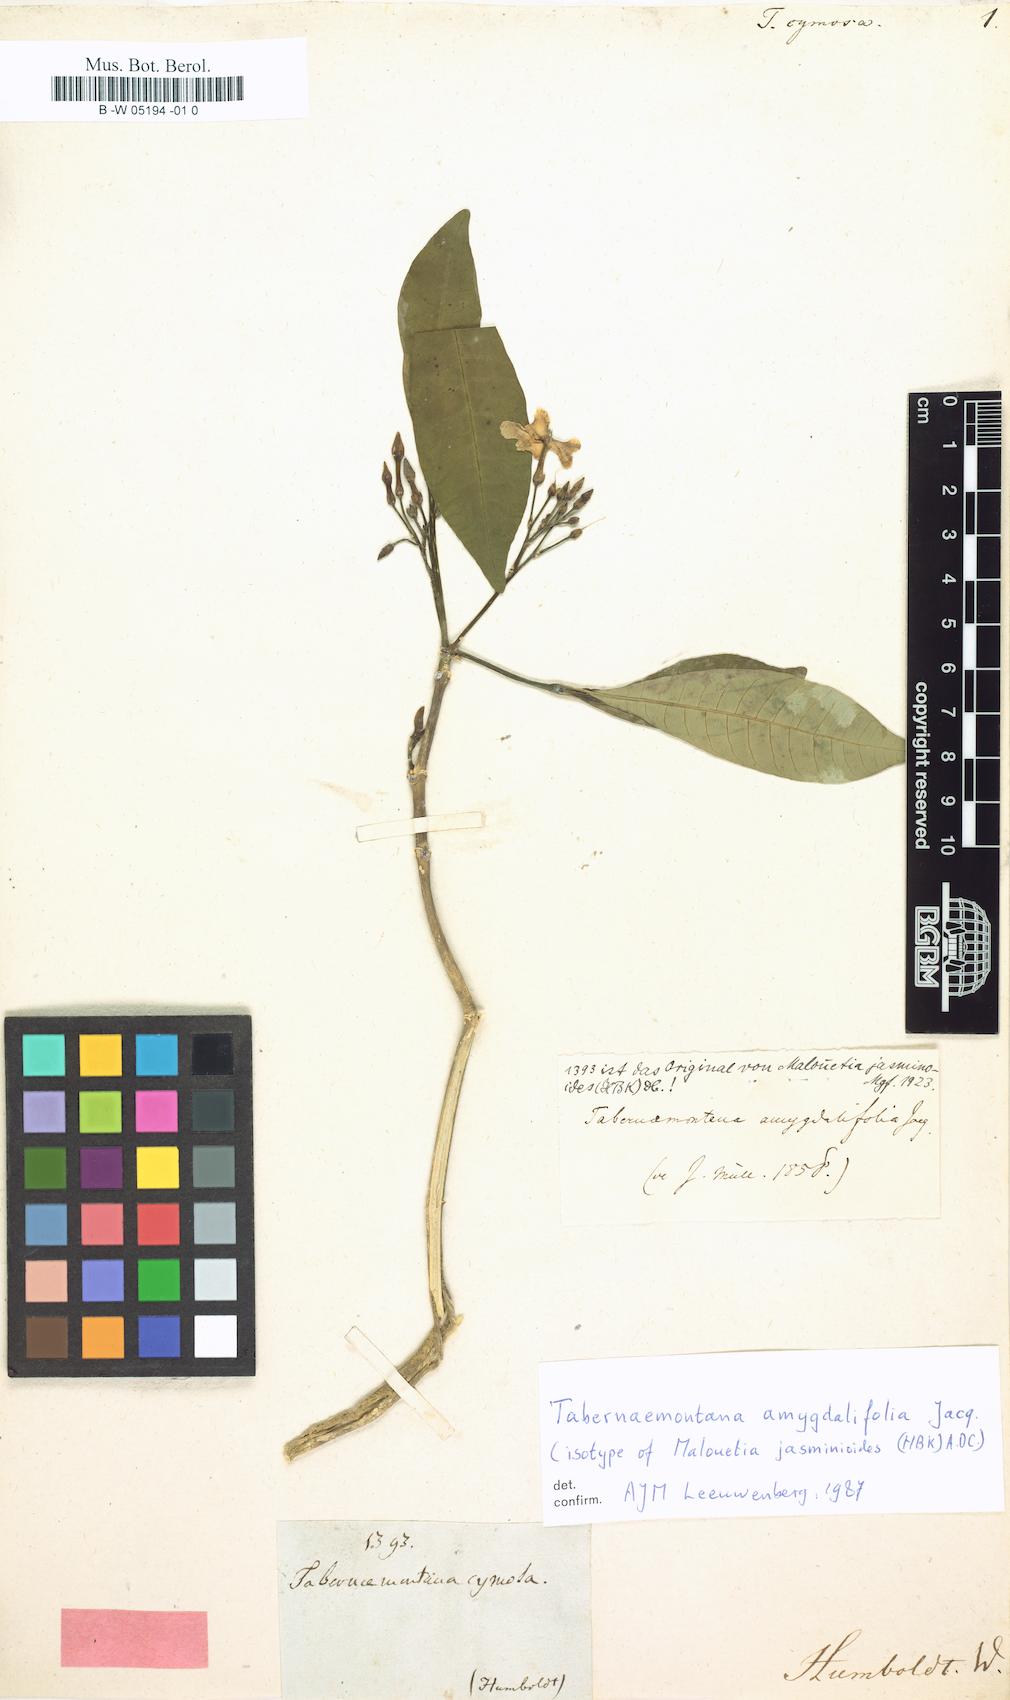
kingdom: Plantae
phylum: Tracheophyta
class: Magnoliopsida
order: Gentianales
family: Apocynaceae
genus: Tabernaemontana
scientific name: Tabernaemontana cymosa
